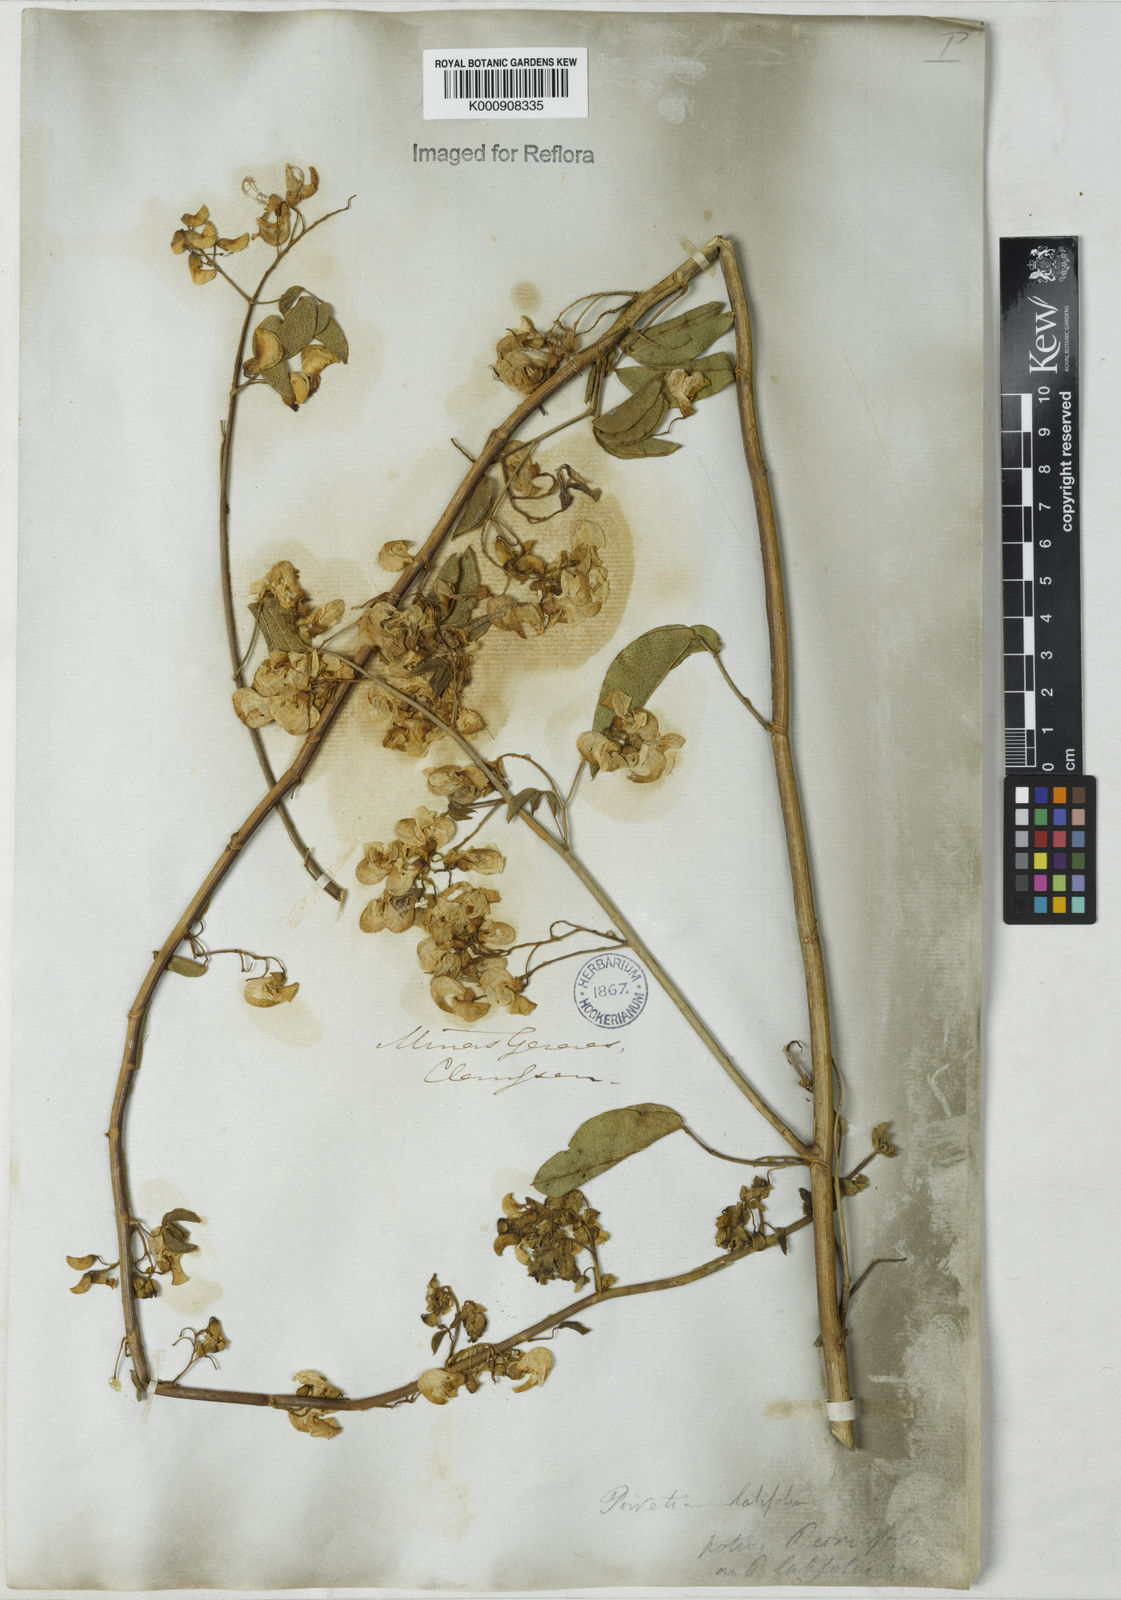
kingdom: Plantae
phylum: Tracheophyta
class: Magnoliopsida
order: Fabales
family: Fabaceae
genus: Poiretia
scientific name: Poiretia coriifolia
